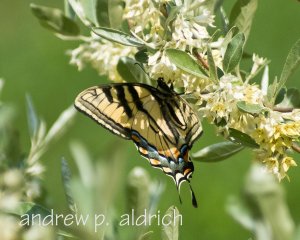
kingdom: Animalia
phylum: Arthropoda
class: Insecta
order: Lepidoptera
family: Papilionidae
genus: Pterourus
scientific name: Pterourus canadensis
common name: Canadian Tiger Swallowtail
